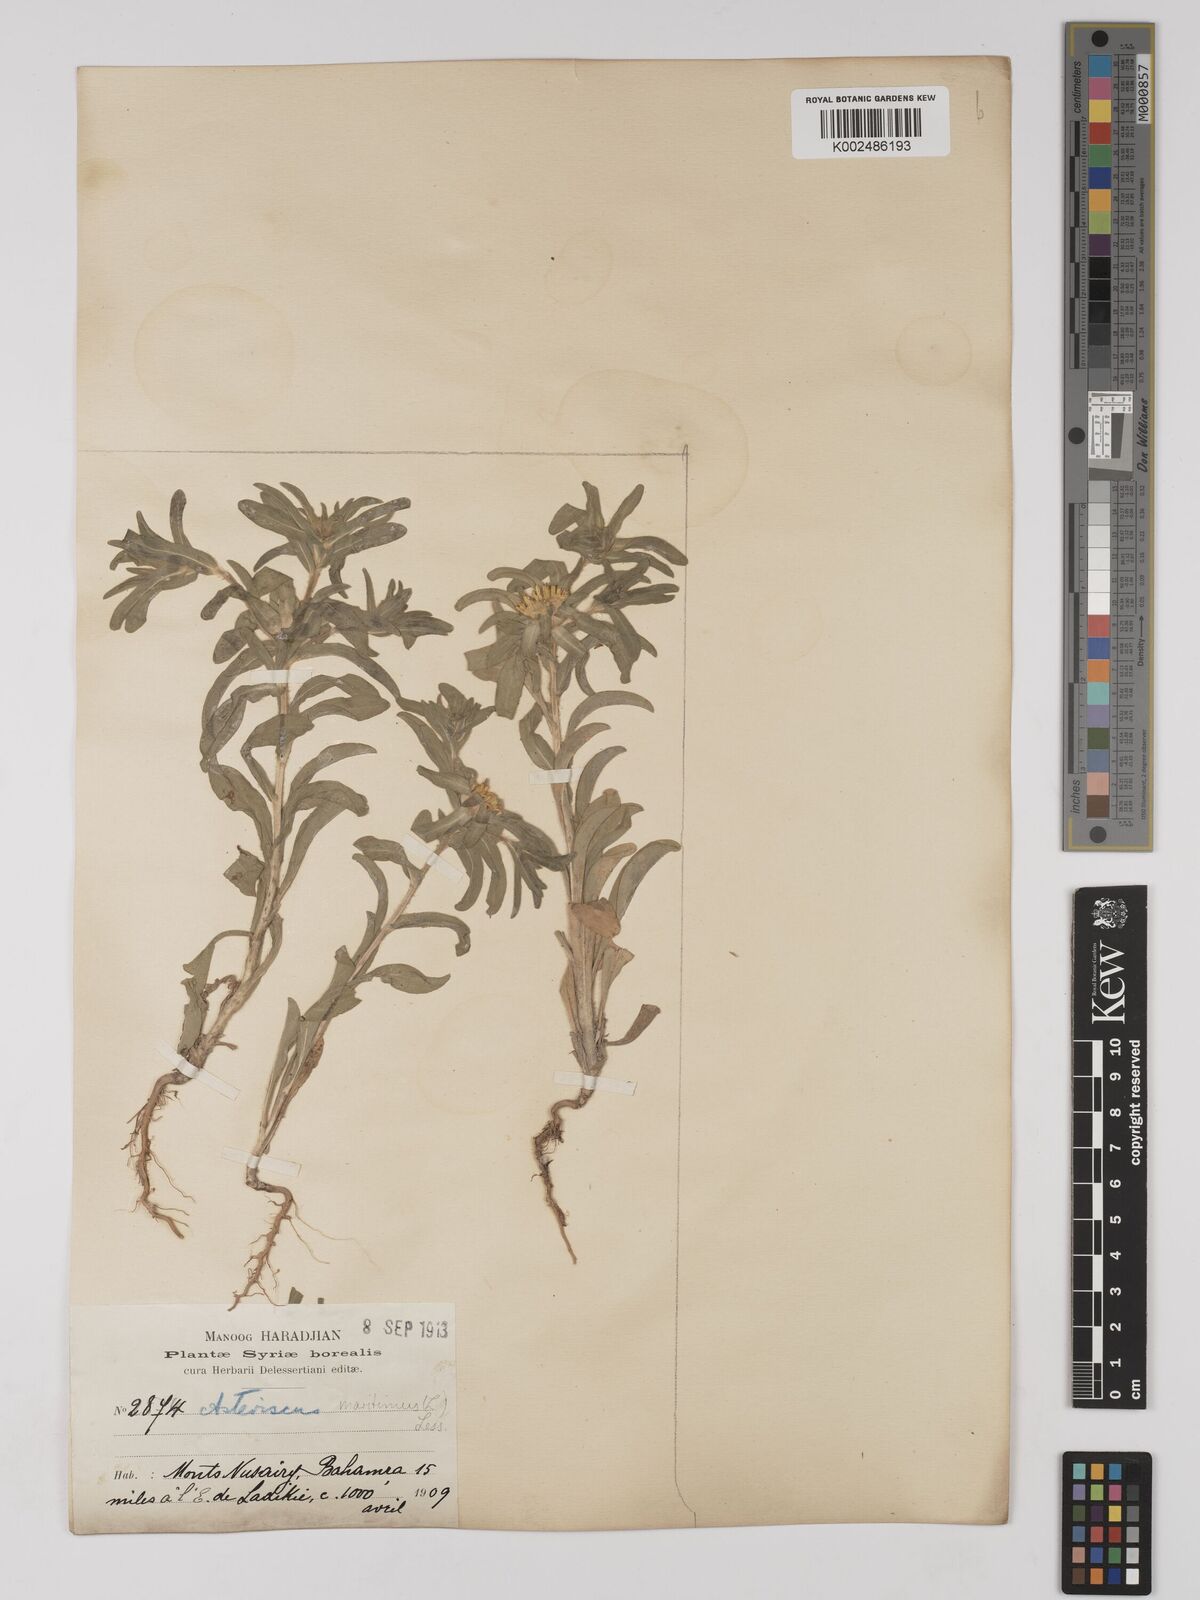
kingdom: Plantae
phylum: Tracheophyta
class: Magnoliopsida
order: Asterales
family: Asteraceae
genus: Pallenis
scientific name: Pallenis spinosa
